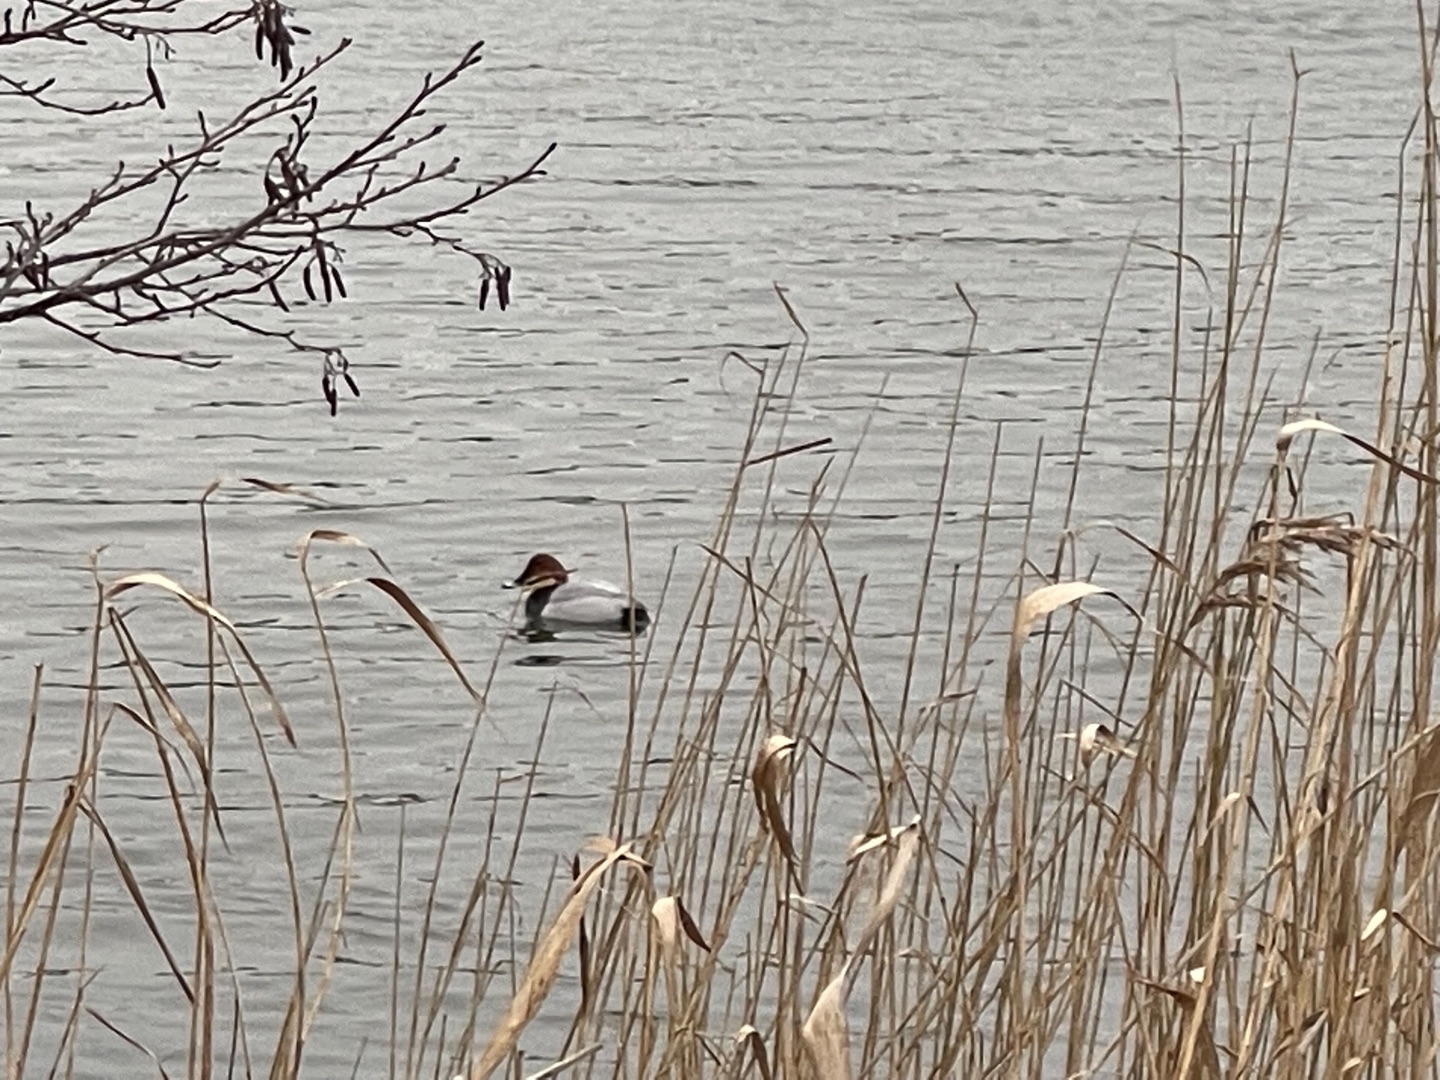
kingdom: Animalia
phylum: Chordata
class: Aves
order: Anseriformes
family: Anatidae
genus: Aythya
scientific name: Aythya ferina
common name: Taffeland
